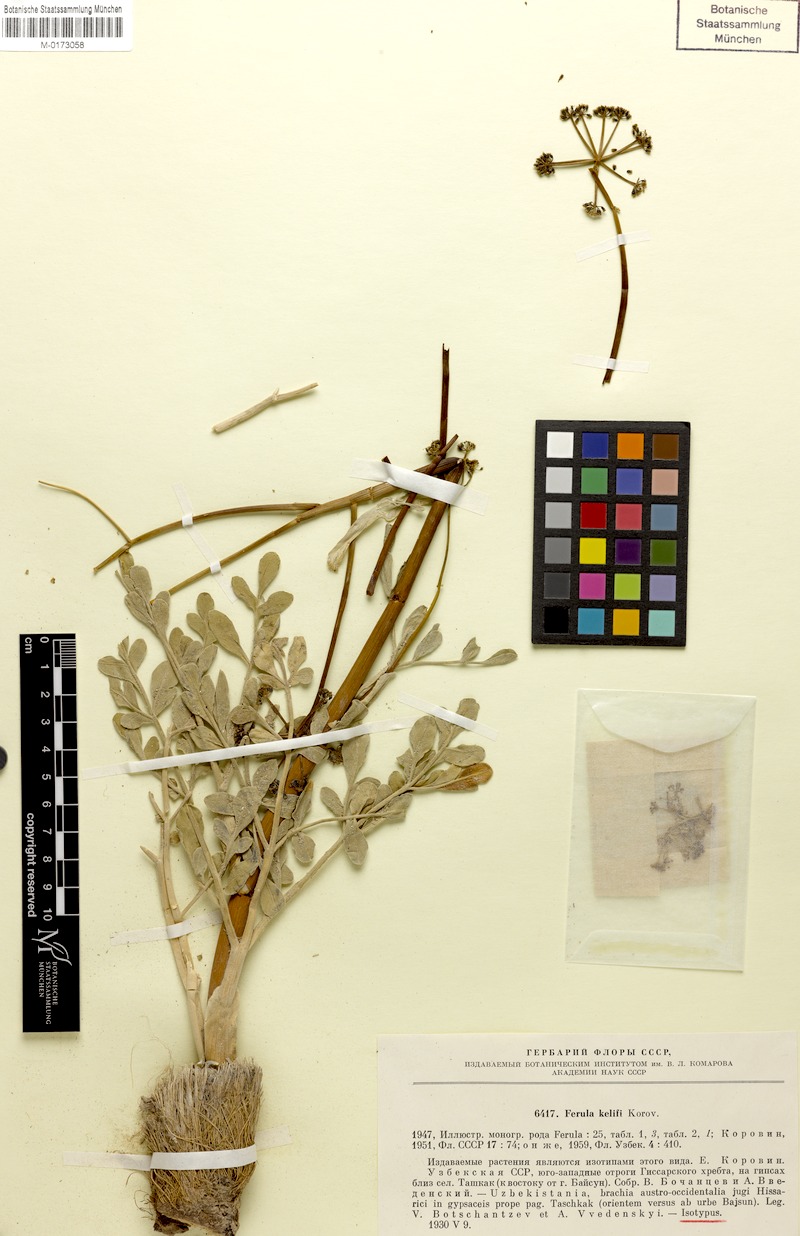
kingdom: Plantae
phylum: Tracheophyta
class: Magnoliopsida
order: Apiales
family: Apiaceae
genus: Ferula
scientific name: Ferula kelifi
